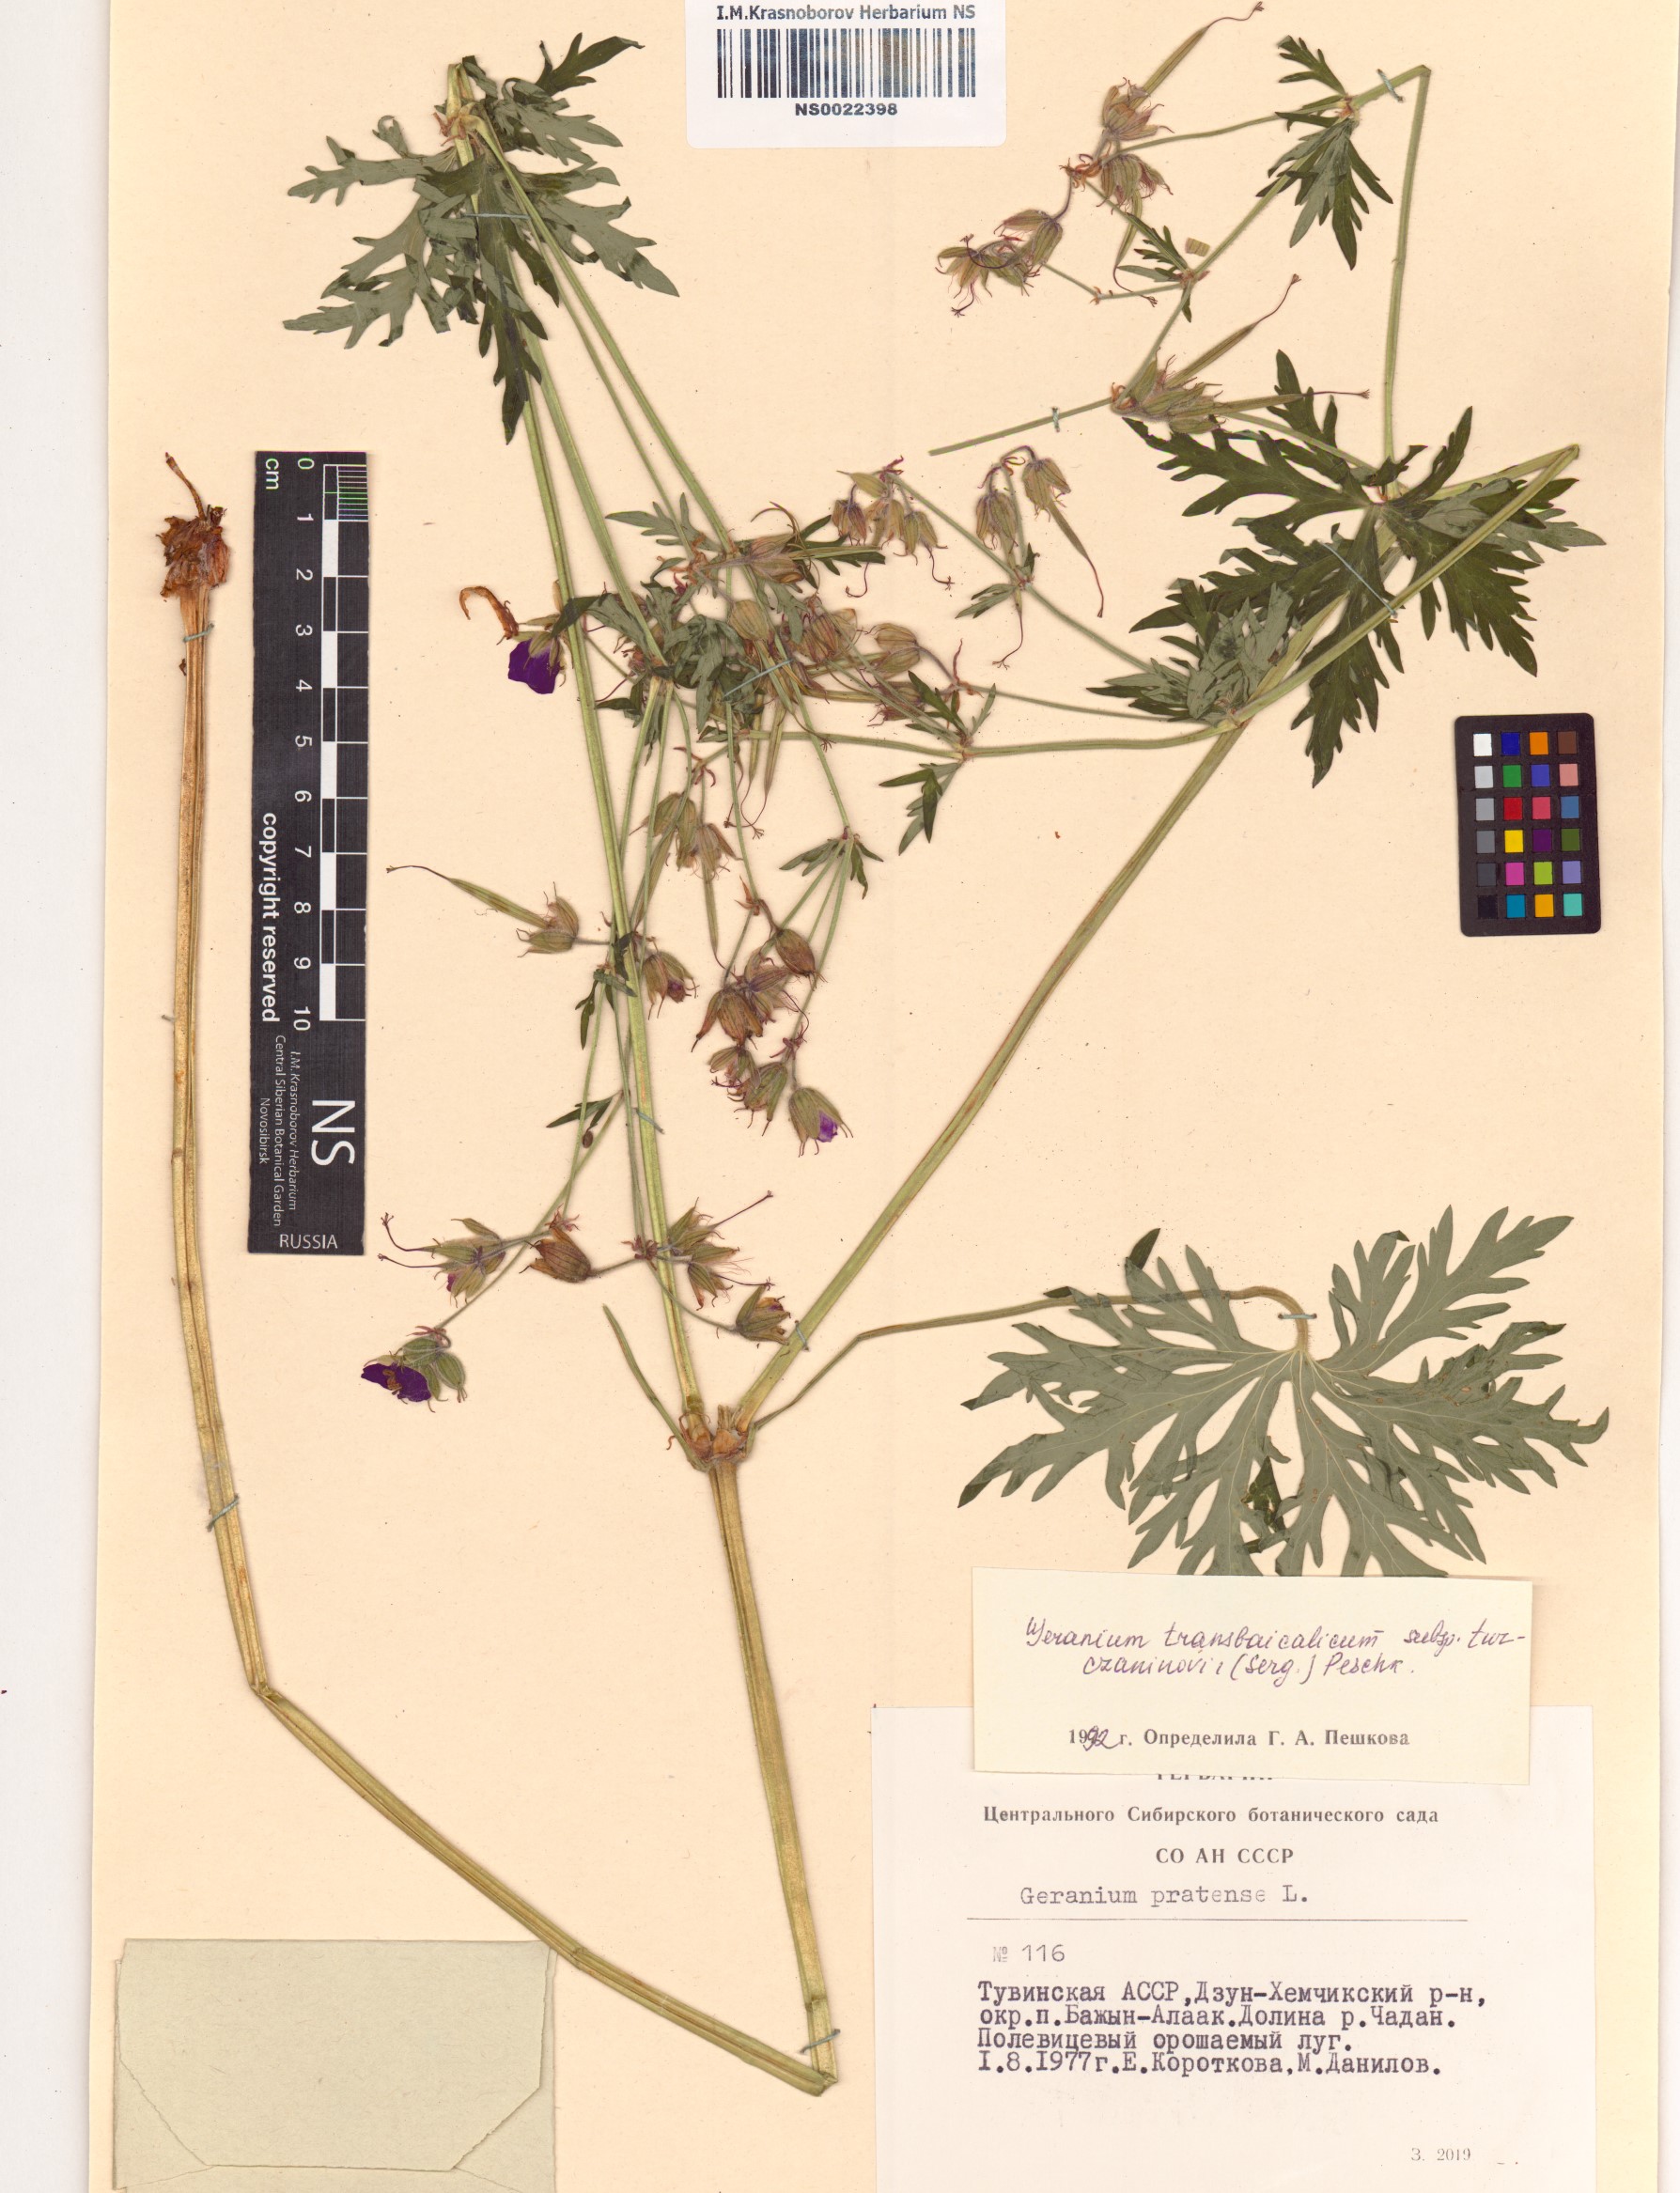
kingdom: Plantae
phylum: Tracheophyta
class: Magnoliopsida
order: Geraniales
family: Geraniaceae
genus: Geranium
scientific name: Geranium pratense
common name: Meadow crane's-bill
